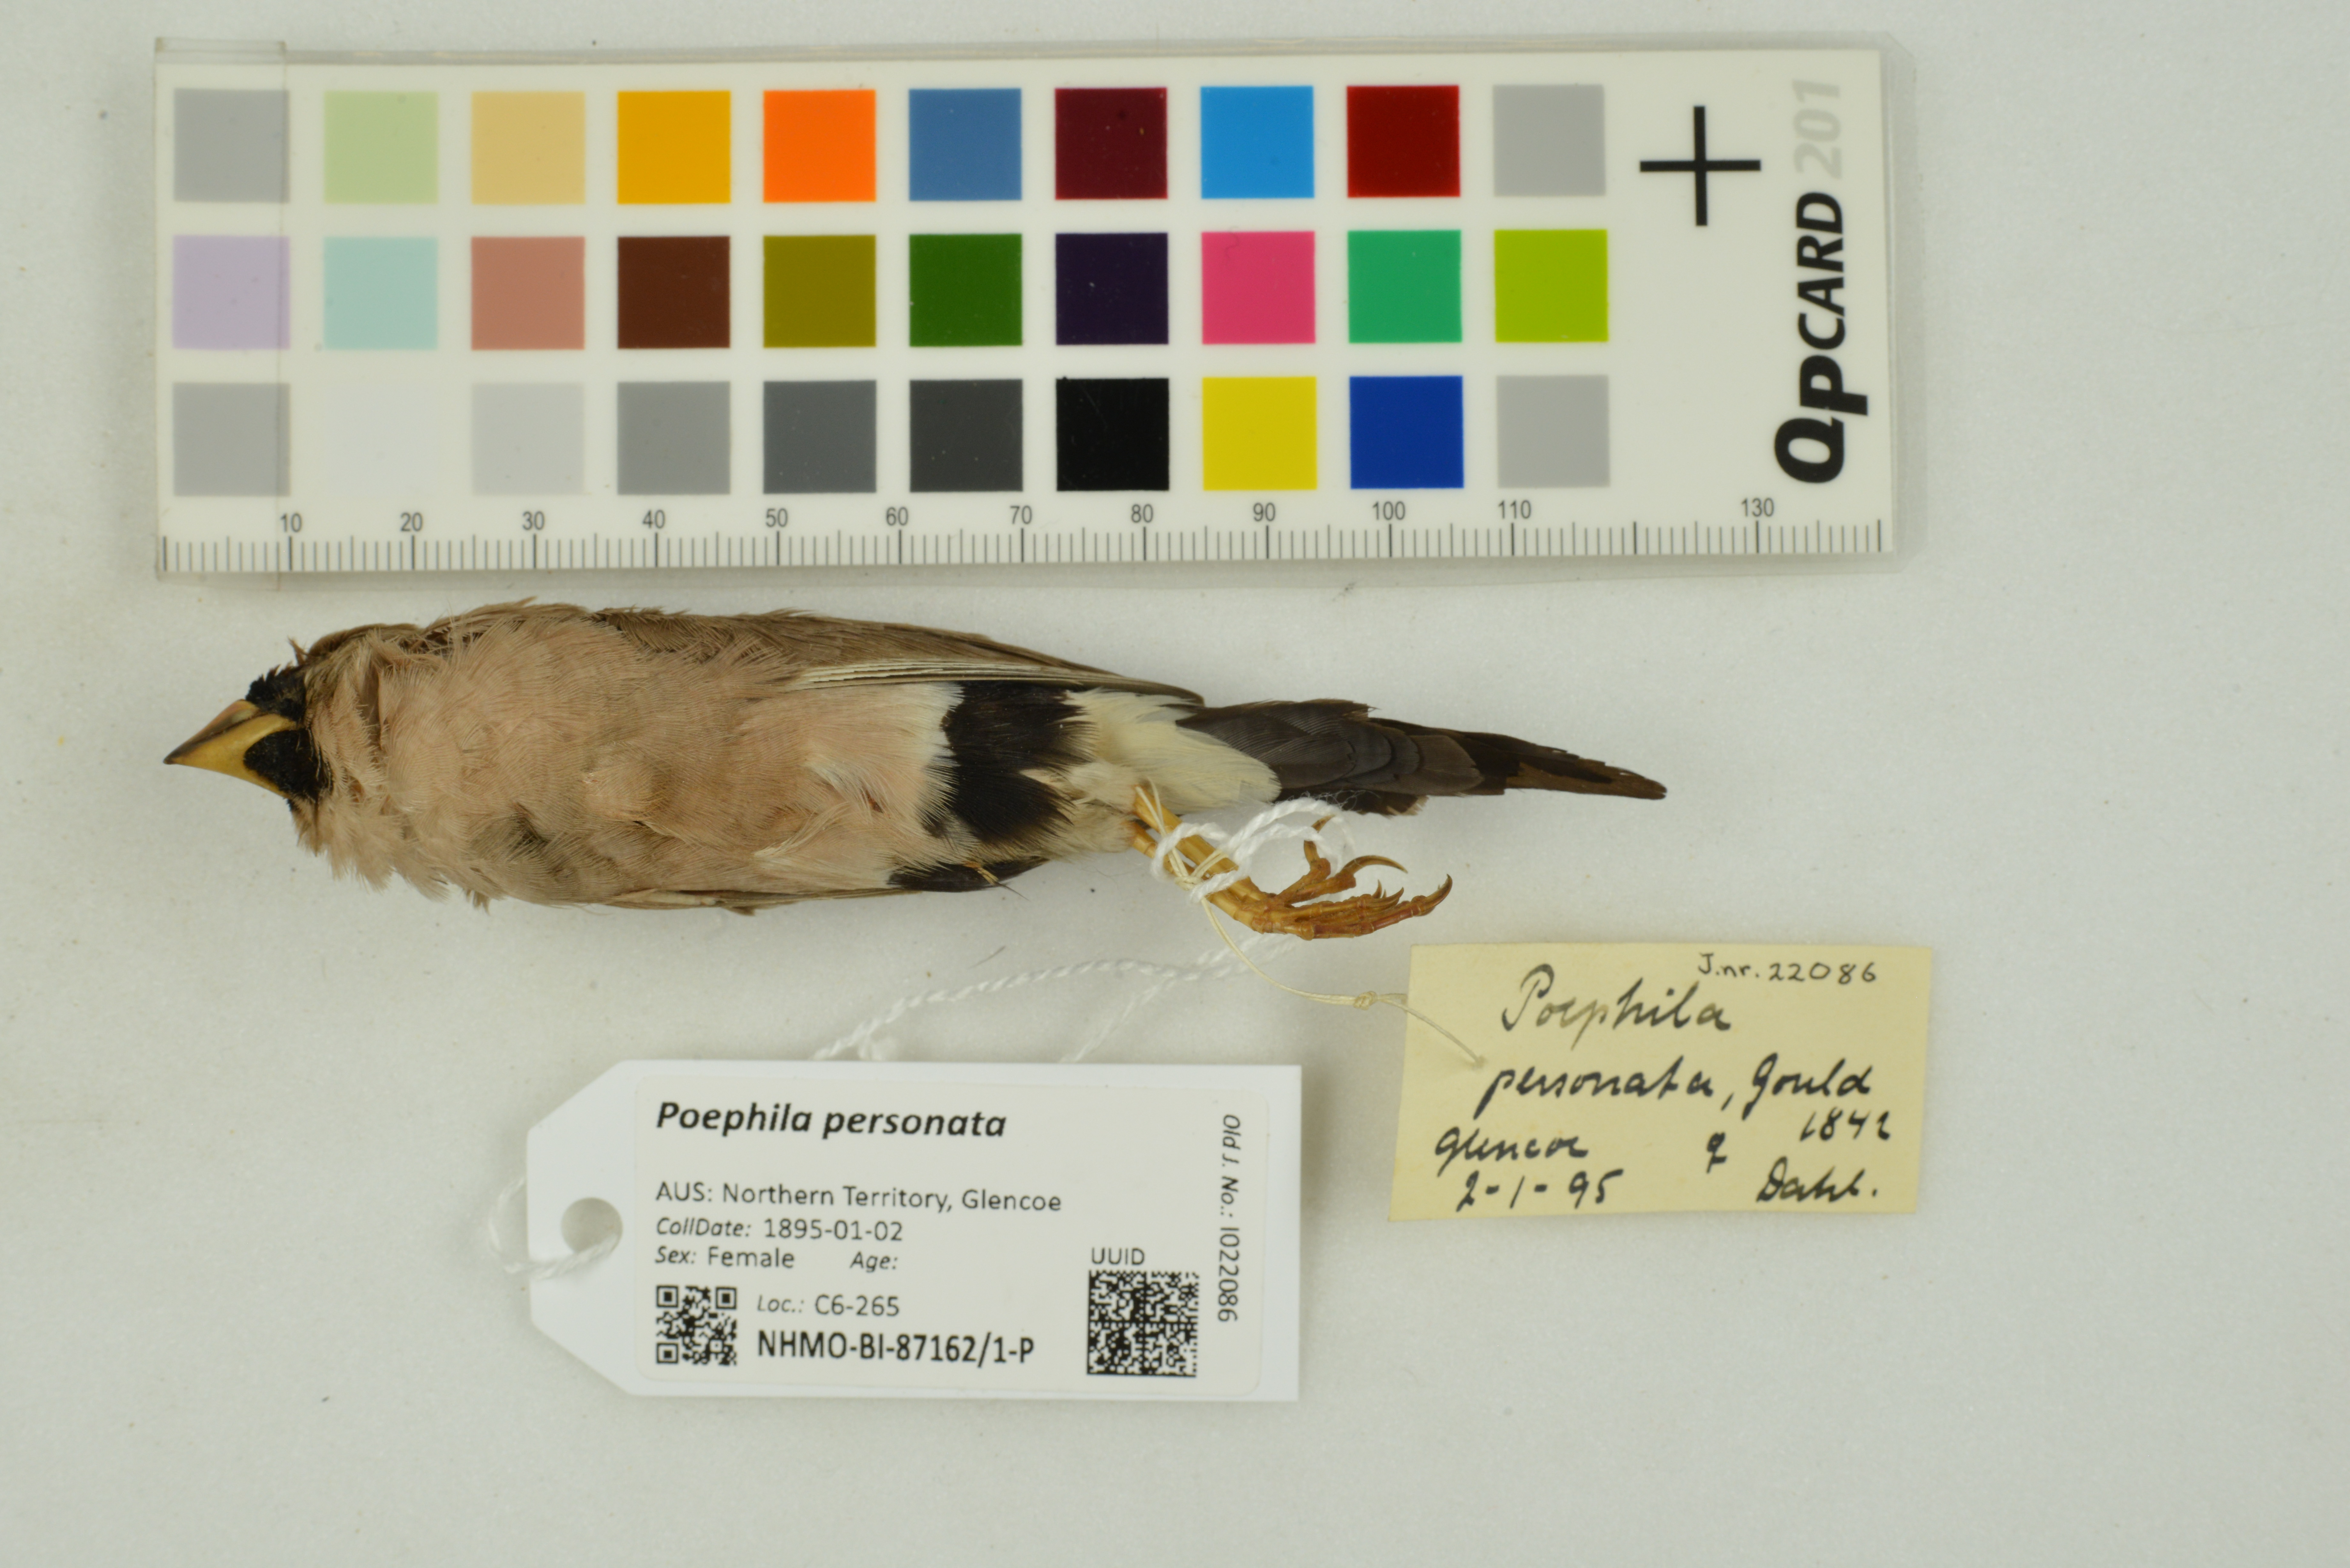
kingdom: Animalia
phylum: Chordata
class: Aves
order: Passeriformes
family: Estrildidae
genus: Poephila
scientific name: Poephila personata
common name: Masked finch
